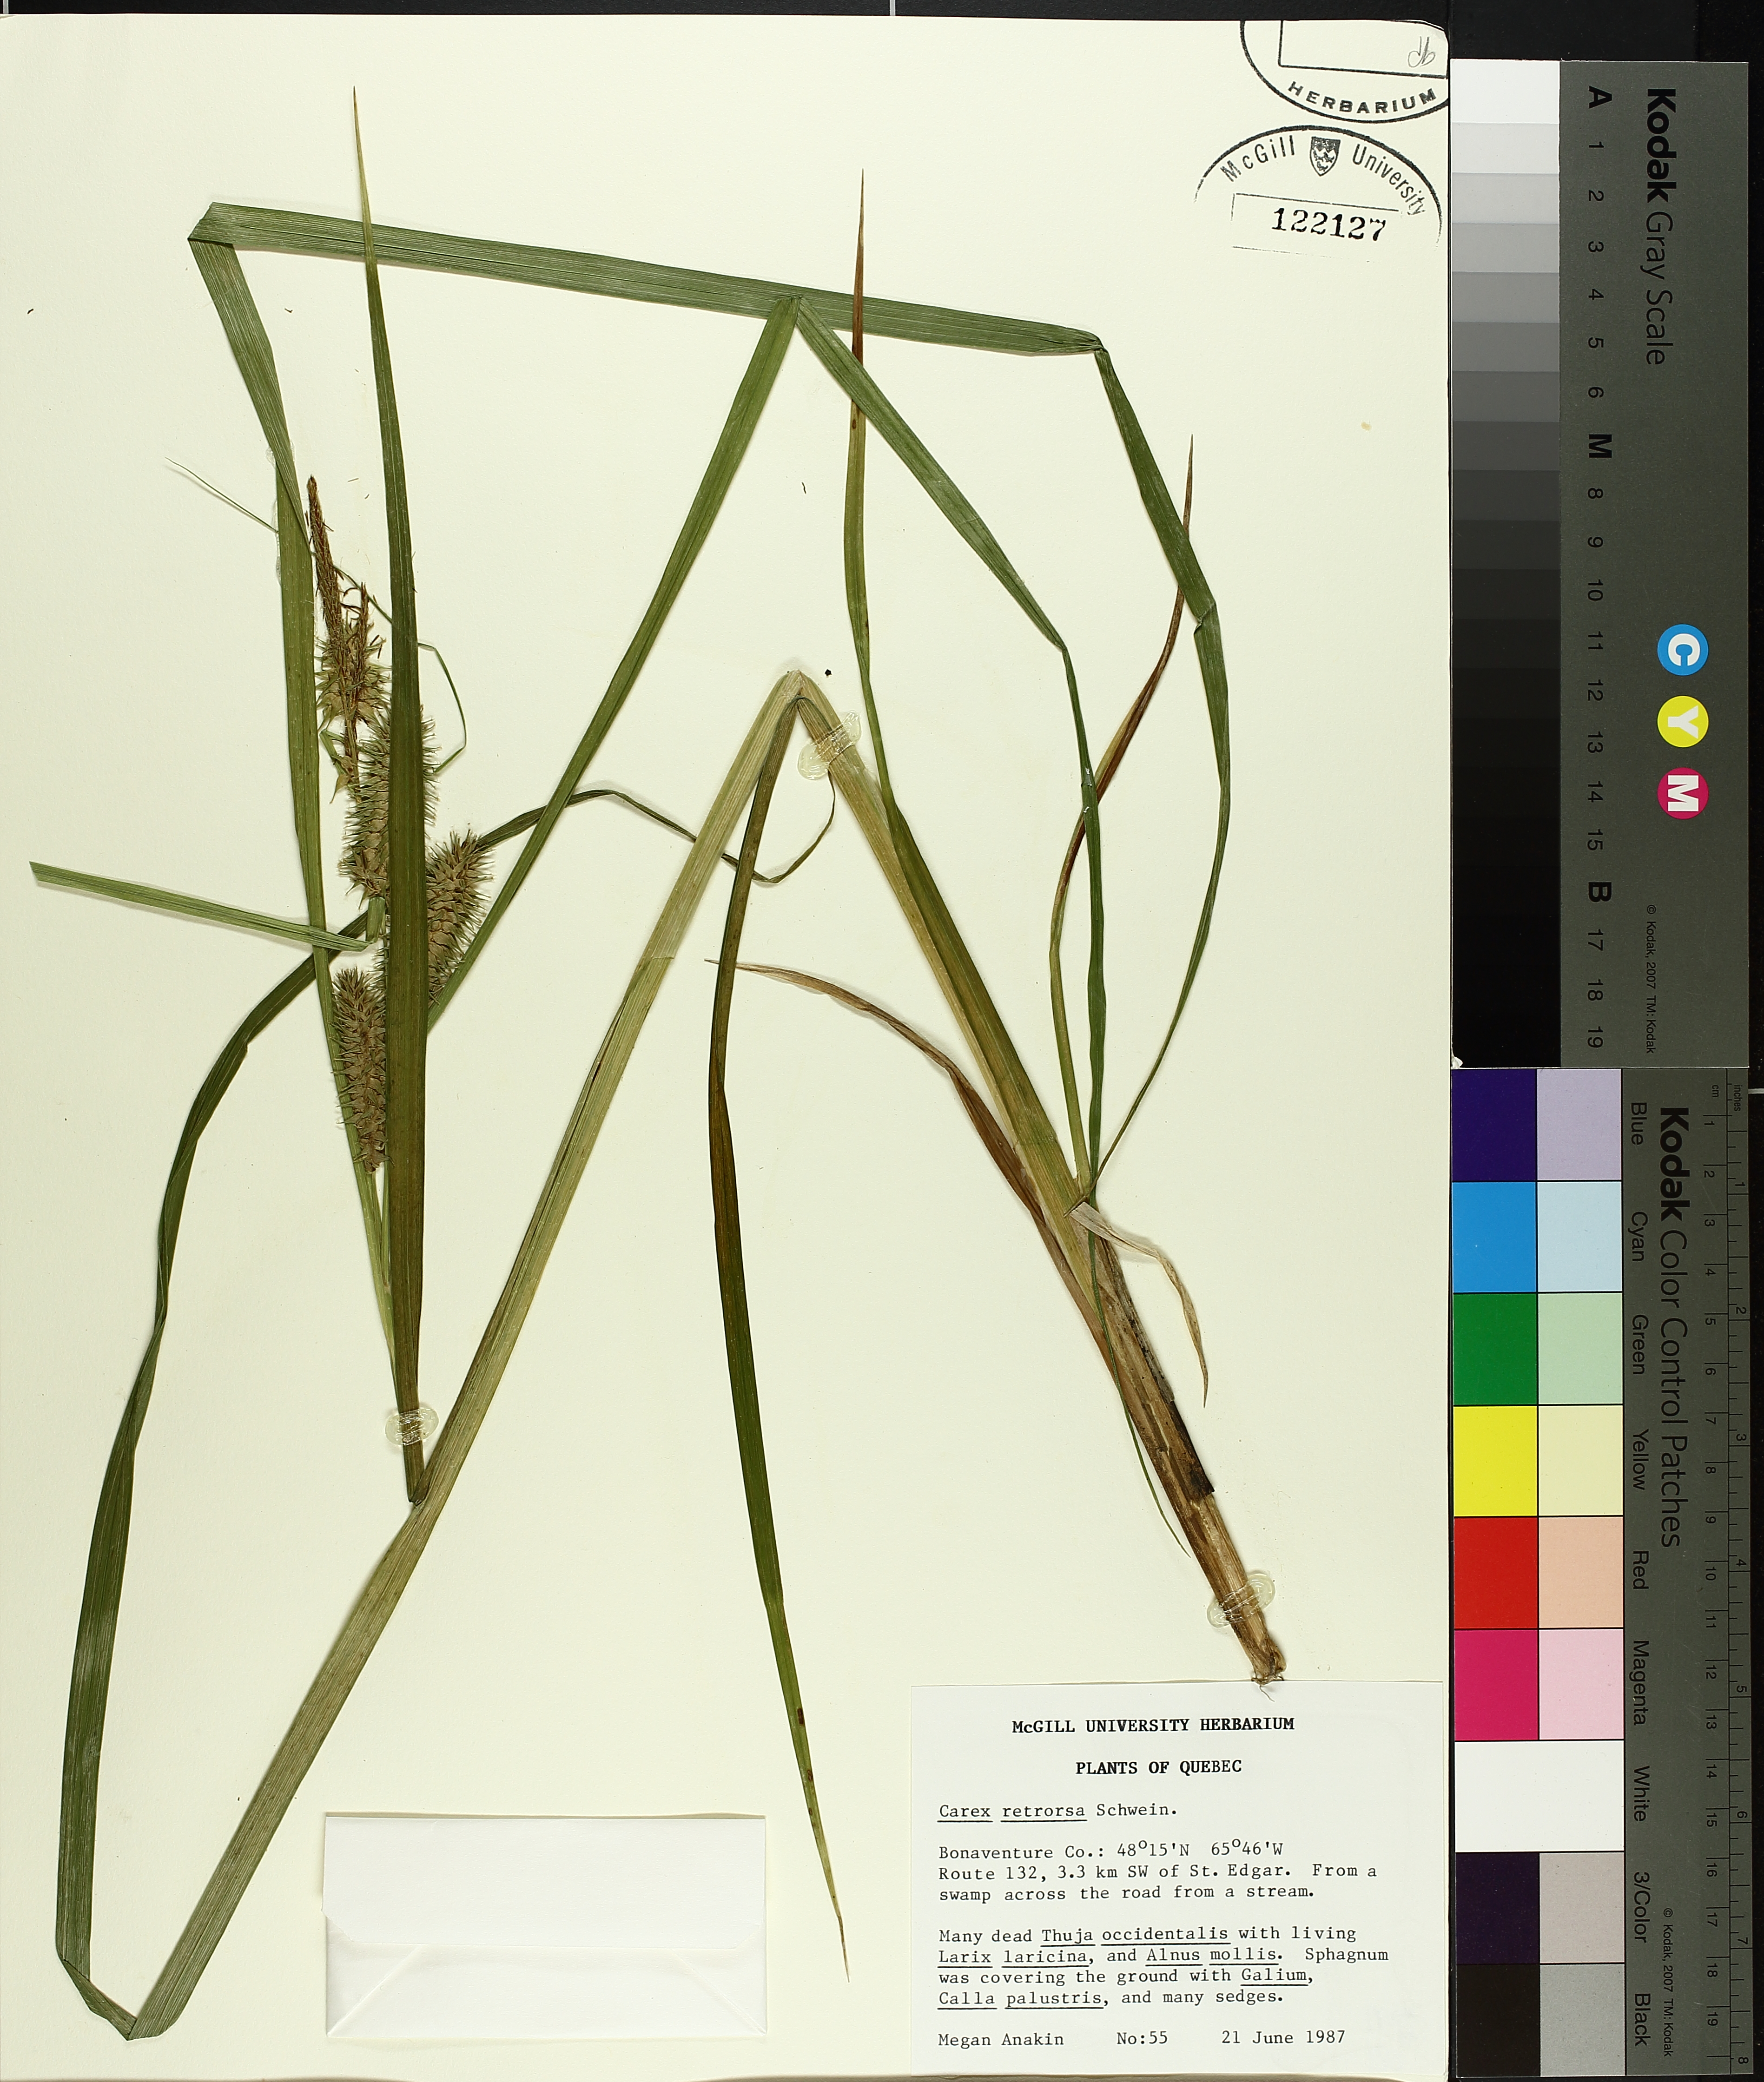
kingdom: Plantae
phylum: Tracheophyta
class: Liliopsida
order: Poales
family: Cyperaceae
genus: Carex
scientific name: Carex retrorsa
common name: Knot-sheath sedge
